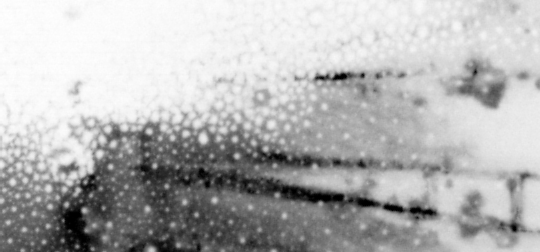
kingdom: Animalia
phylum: Chordata
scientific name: Chordata
